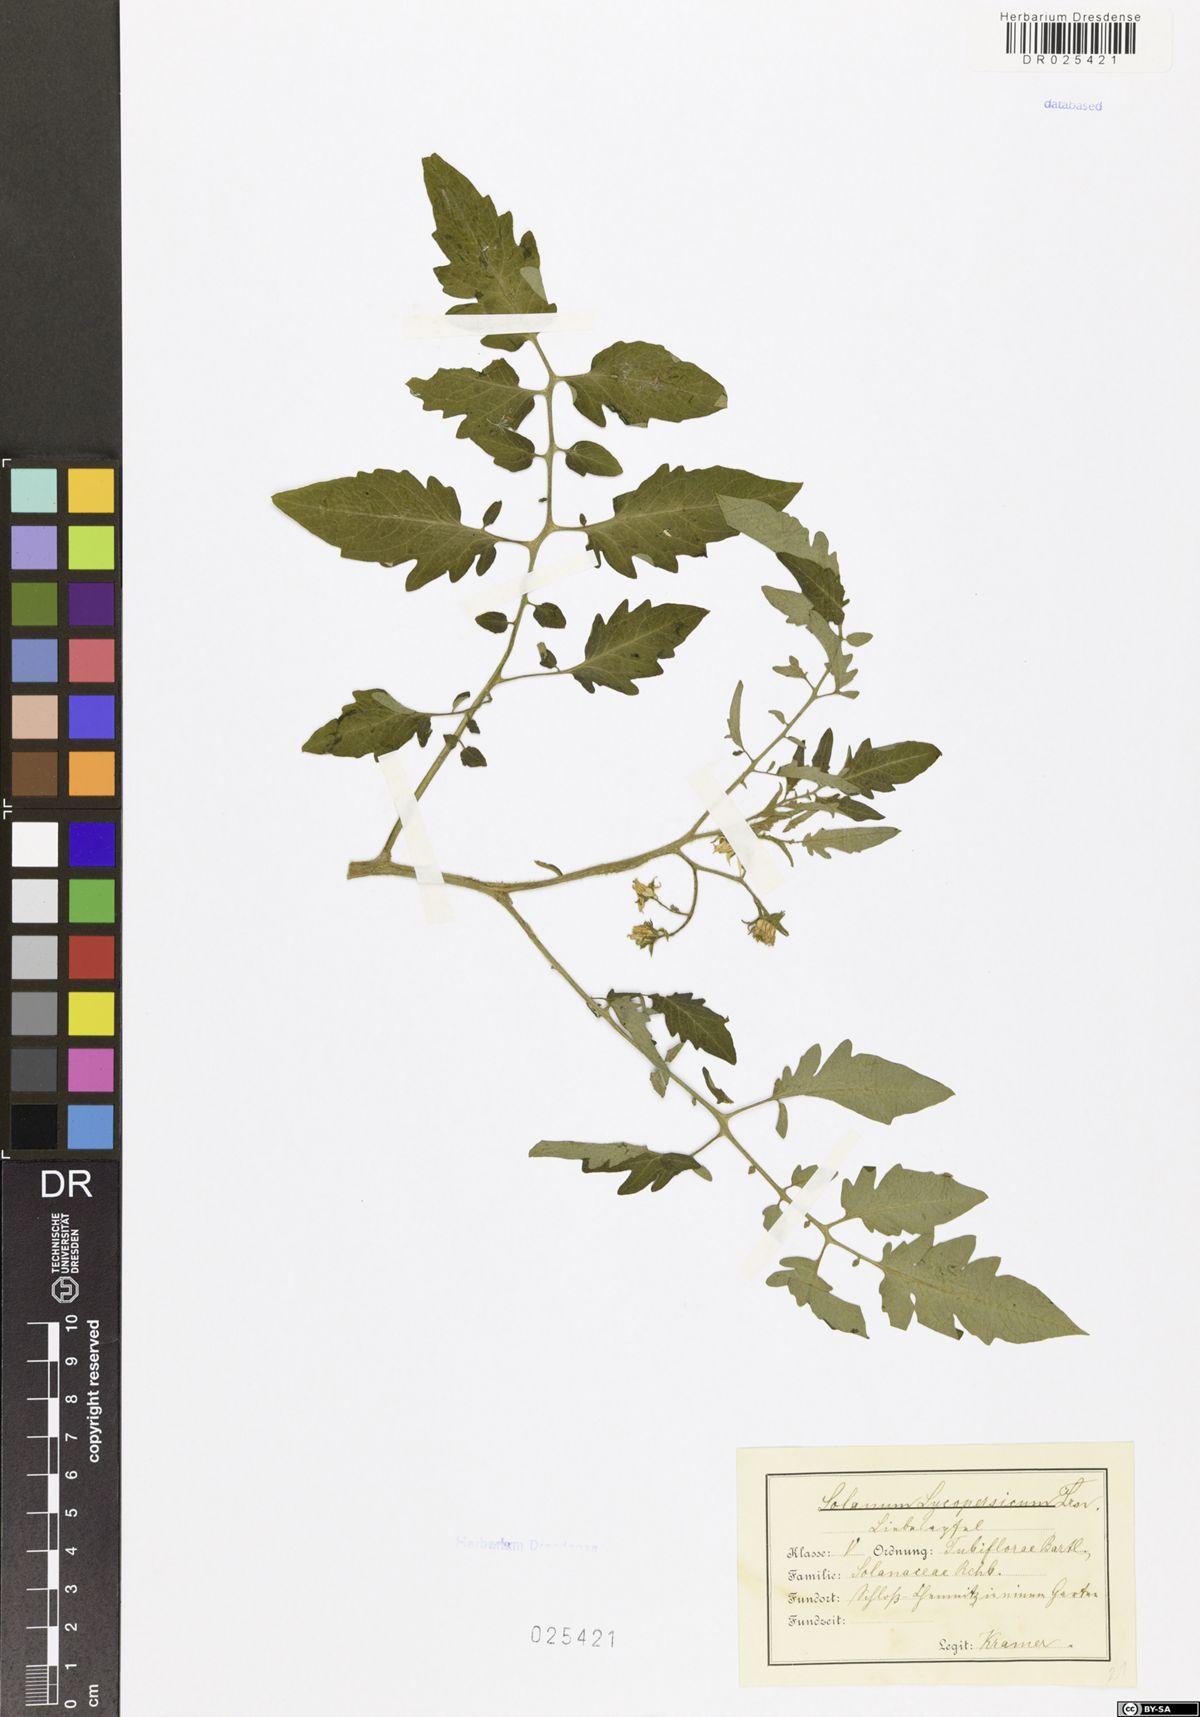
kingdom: Plantae
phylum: Tracheophyta
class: Magnoliopsida
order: Solanales
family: Solanaceae
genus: Solanum
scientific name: Solanum
